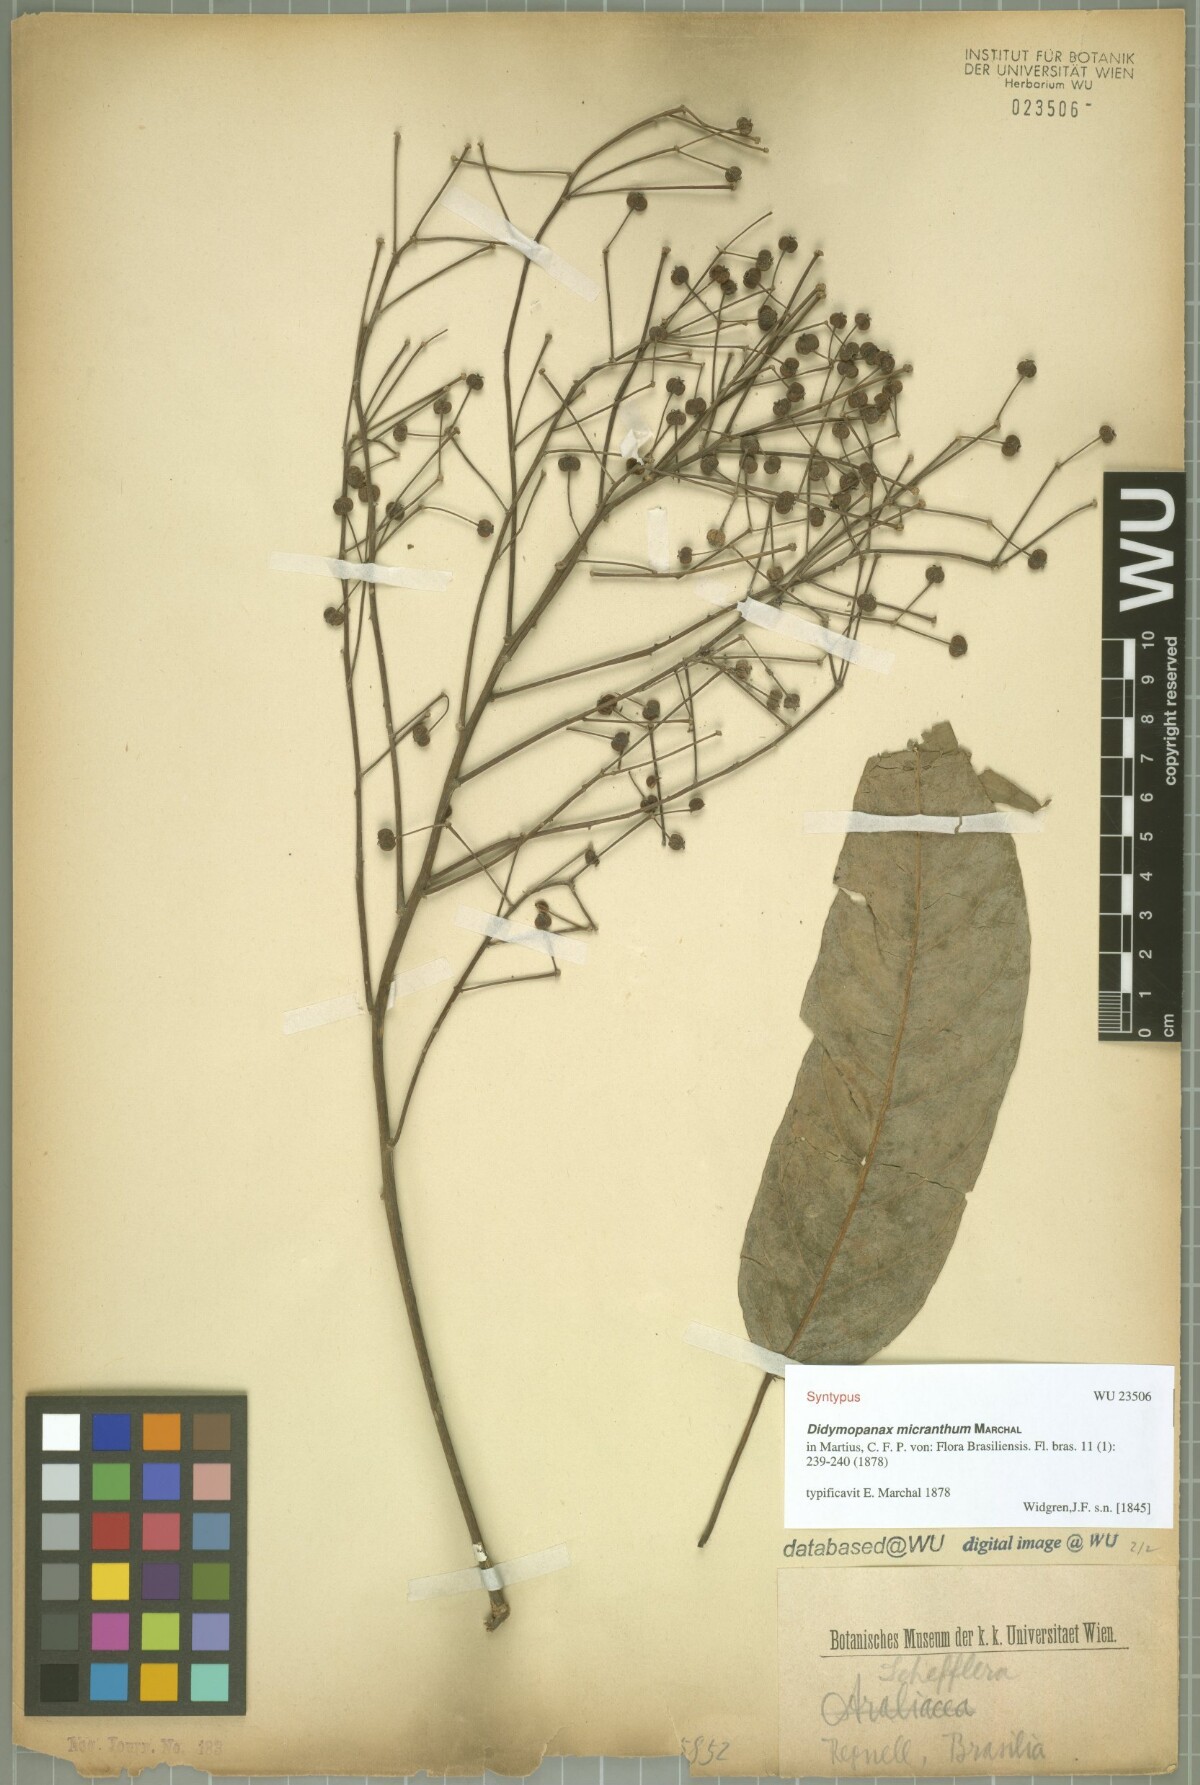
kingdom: Plantae
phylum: Tracheophyta
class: Magnoliopsida
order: Apiales
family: Araliaceae
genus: Didymopanax
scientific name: Didymopanax calvus
